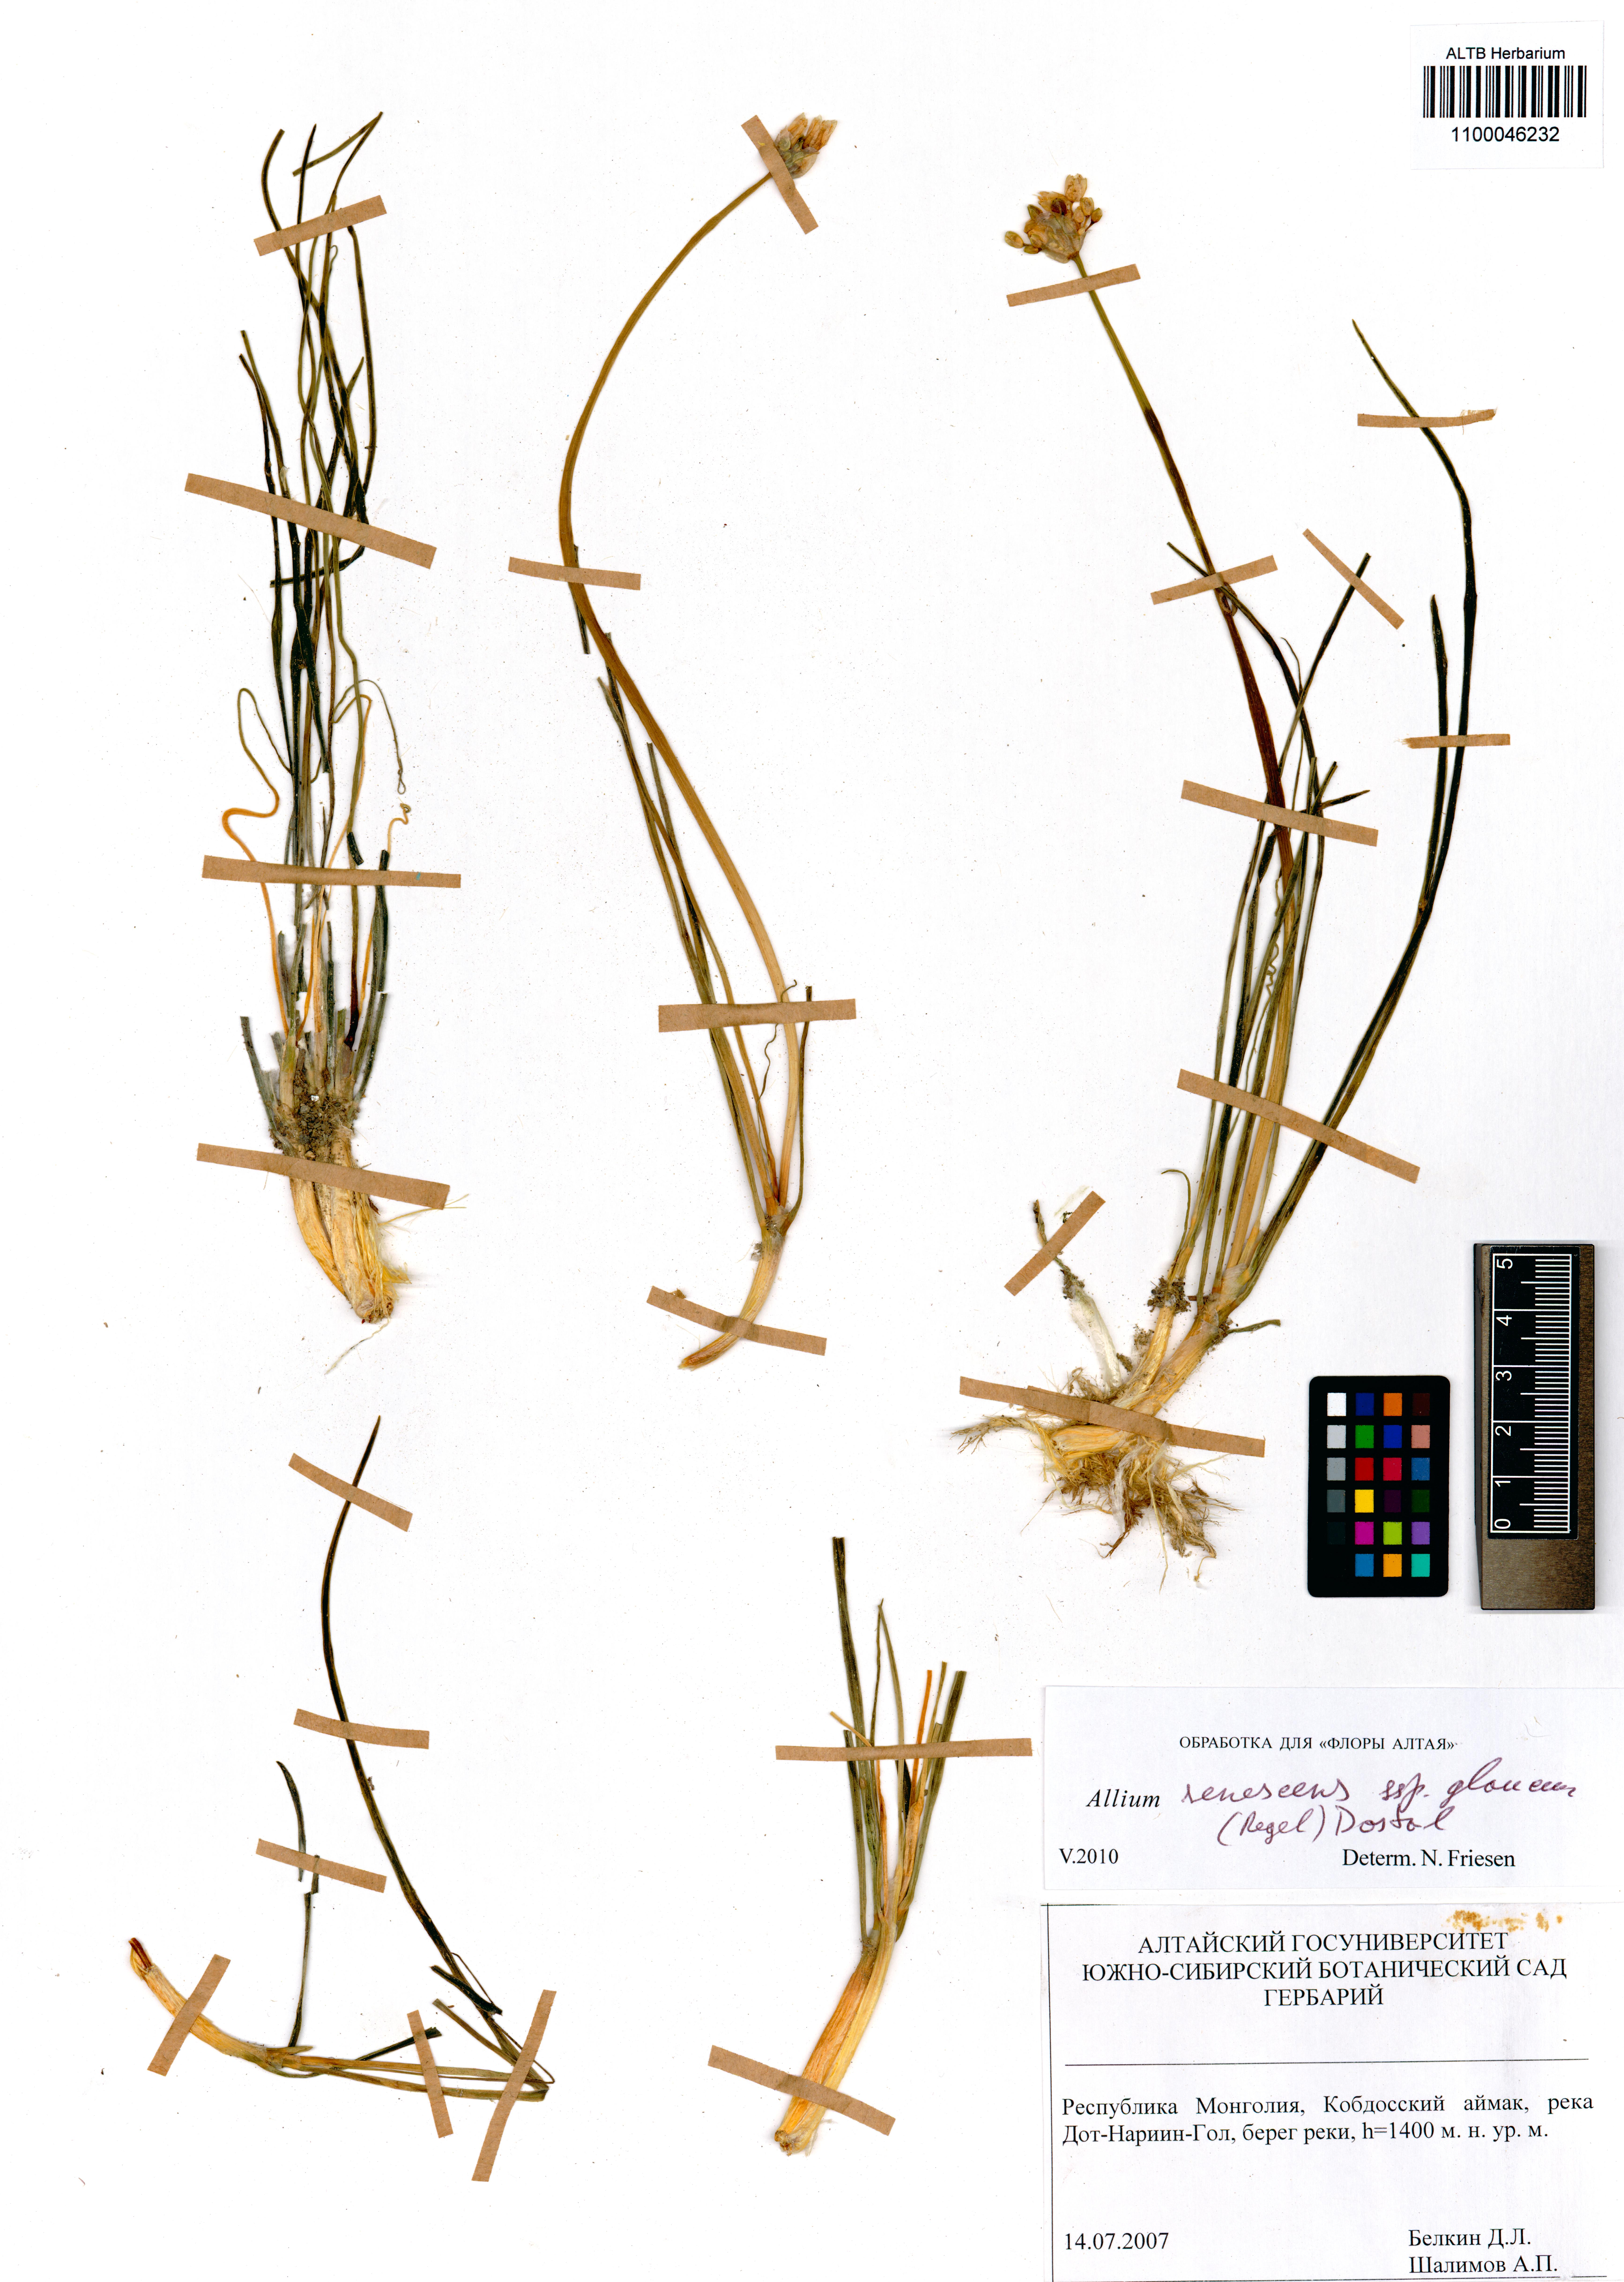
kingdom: Plantae
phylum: Tracheophyta
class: Liliopsida
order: Asparagales
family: Amaryllidaceae
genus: Allium
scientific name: Allium senescens
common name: German garlic
